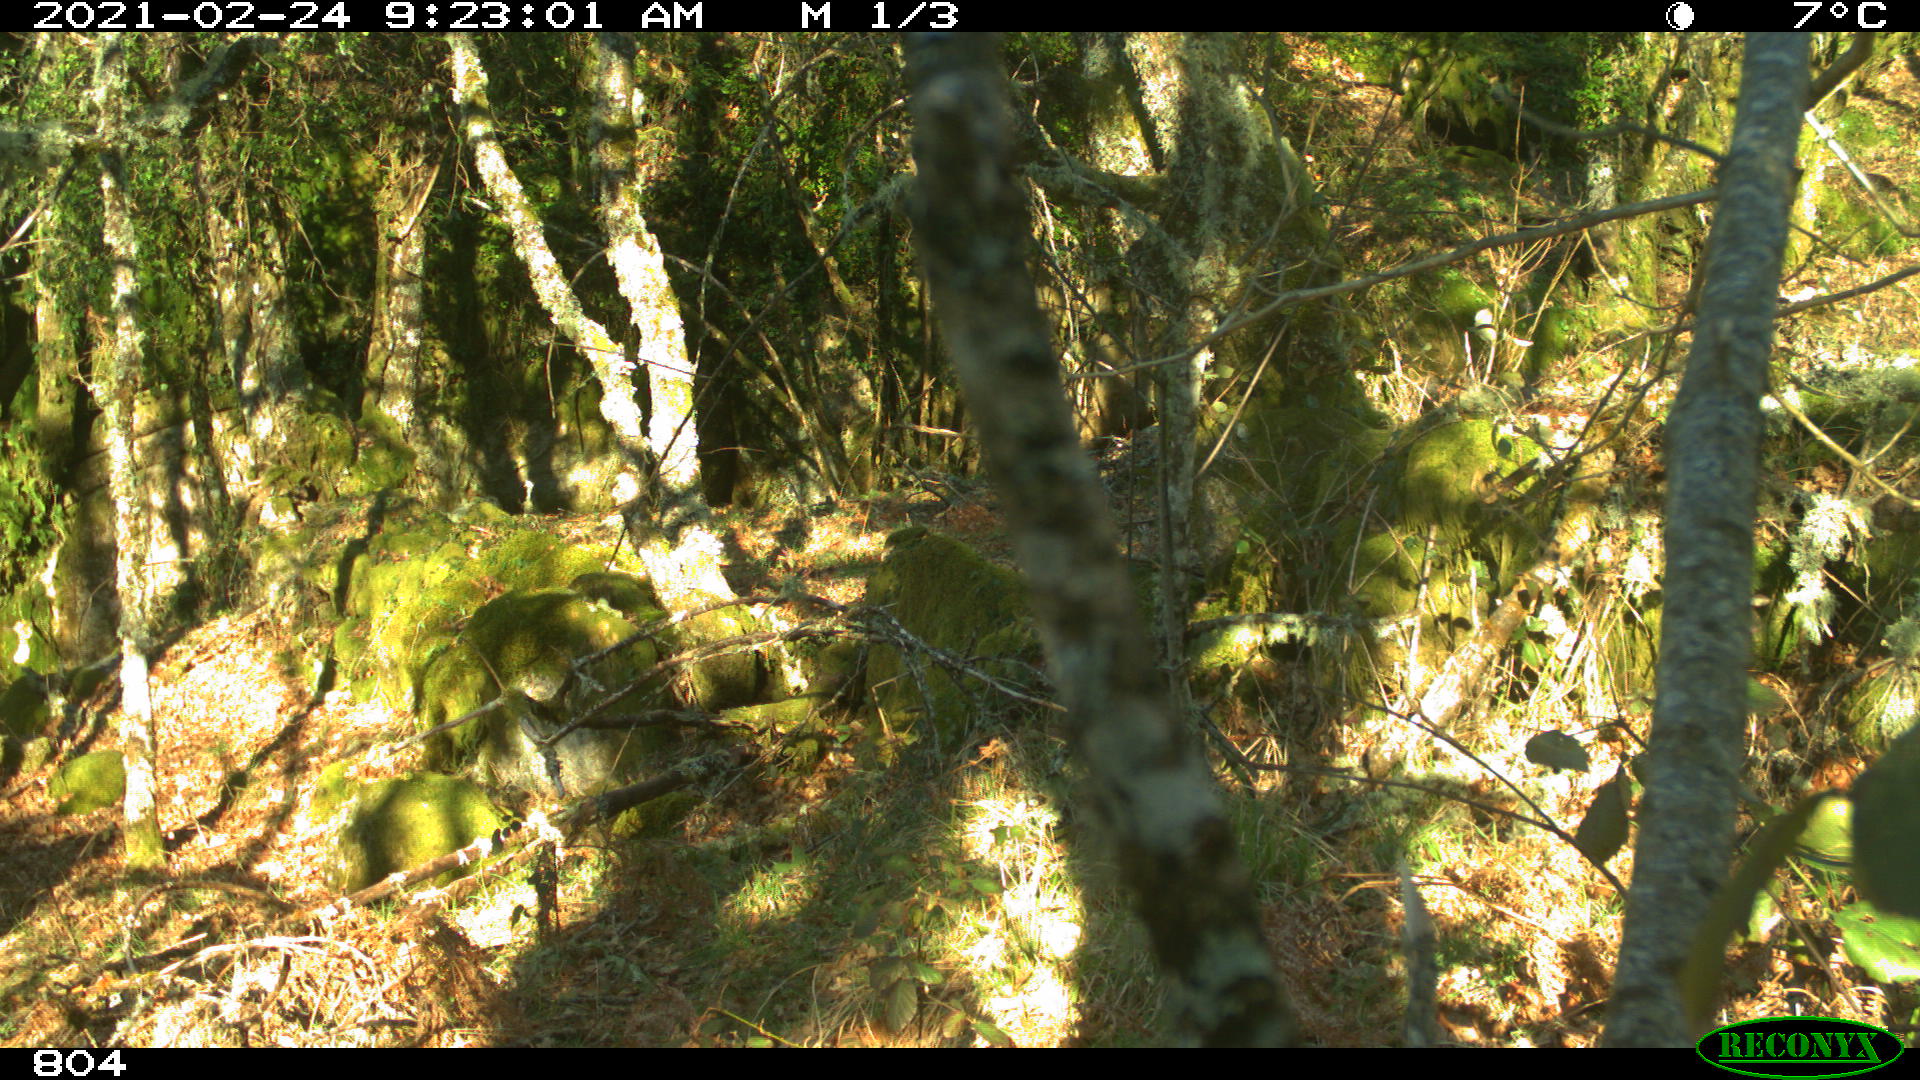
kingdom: Animalia
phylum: Chordata
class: Mammalia
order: Artiodactyla
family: Bovidae
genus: Bos
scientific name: Bos taurus
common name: Domesticated cattle
